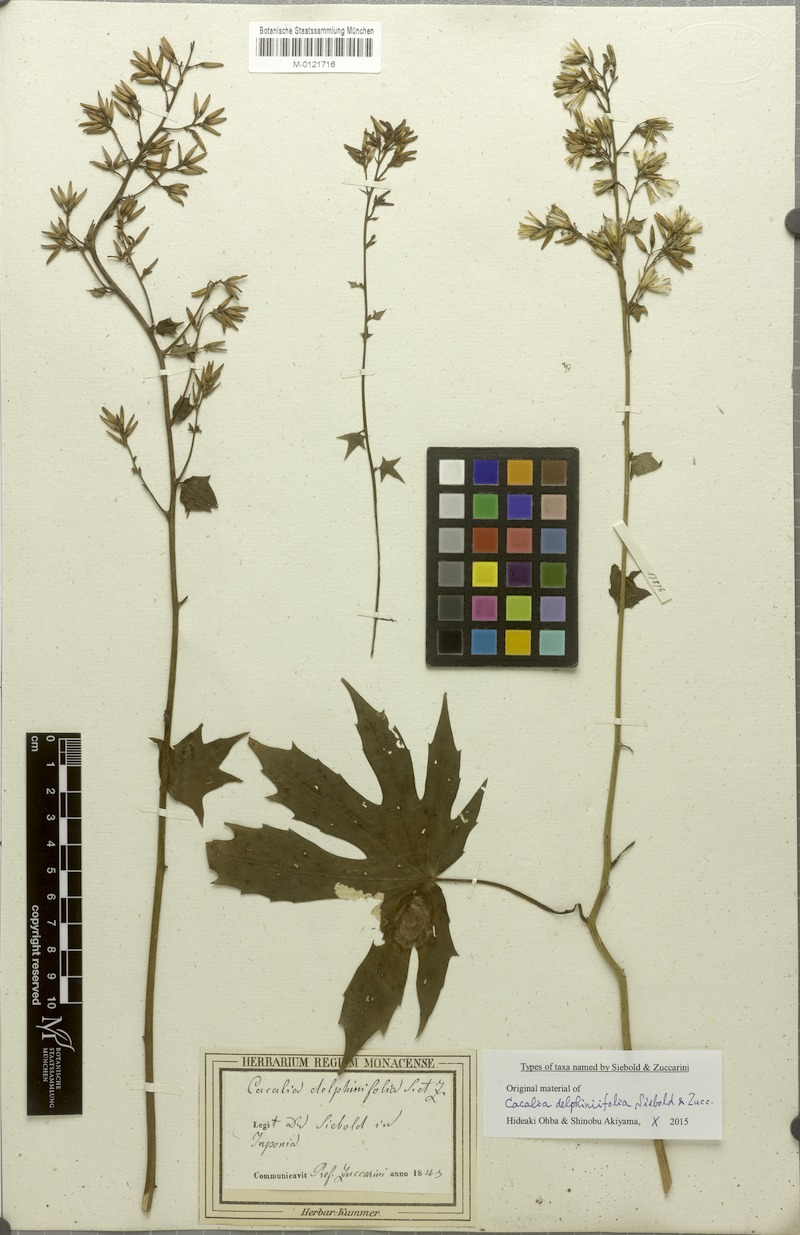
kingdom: Plantae
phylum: Tracheophyta
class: Magnoliopsida
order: Asterales
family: Asteraceae
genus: Japonicalia
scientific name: Japonicalia delphiniifolia
